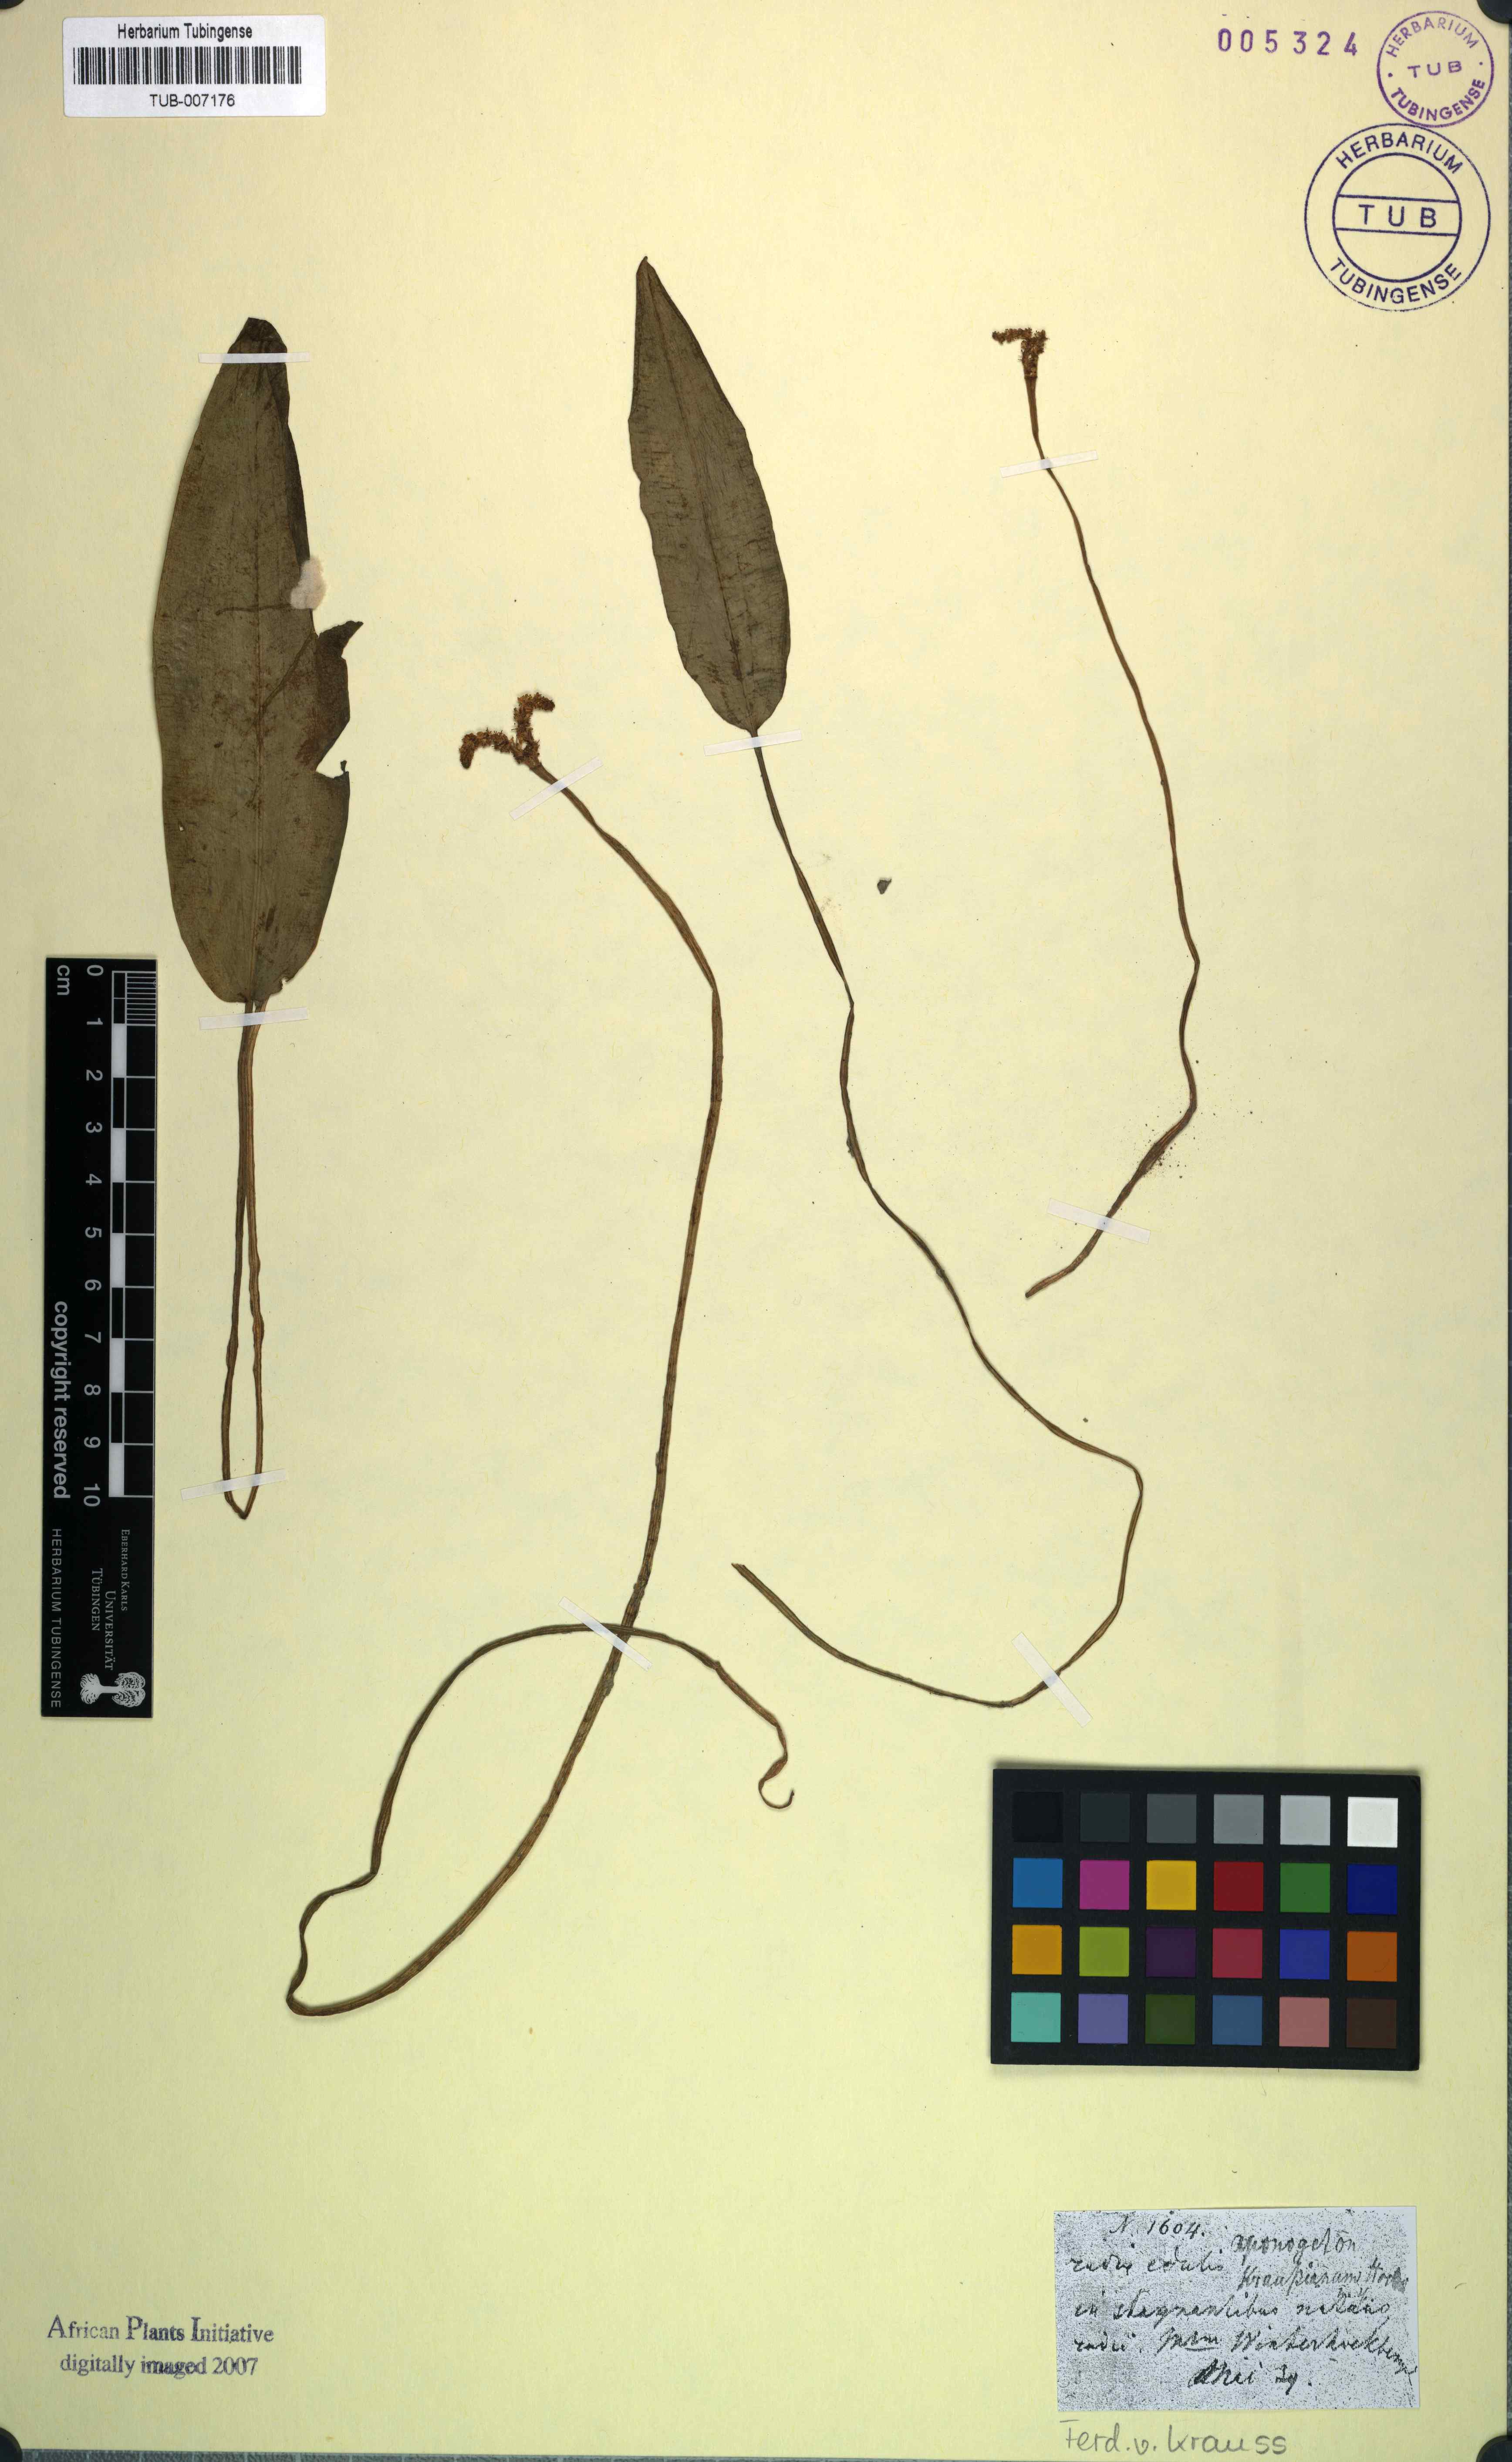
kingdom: Plantae
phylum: Tracheophyta
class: Liliopsida
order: Alismatales
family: Aponogetonaceae
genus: Aponogeton
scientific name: Aponogeton desertorum
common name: Dog-with-two-tails
